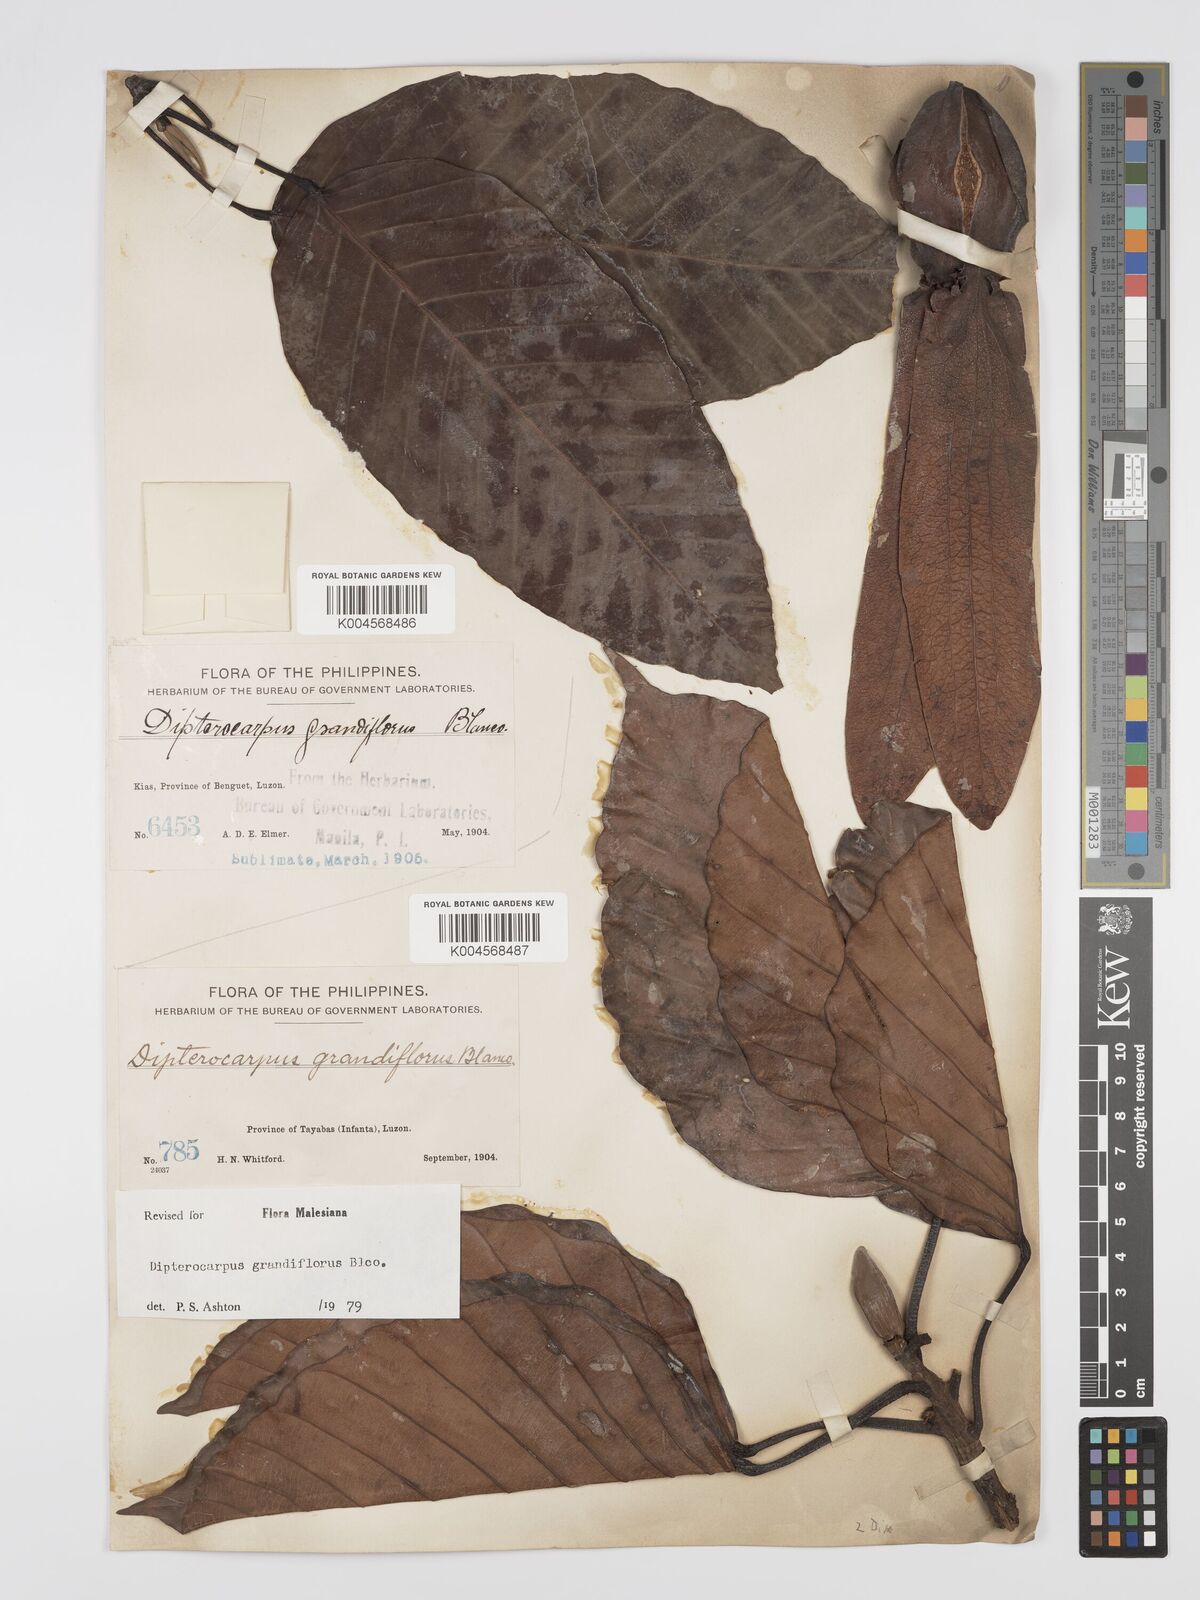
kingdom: Plantae
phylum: Tracheophyta
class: Magnoliopsida
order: Malvales
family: Dipterocarpaceae
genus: Dipterocarpus
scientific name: Dipterocarpus grandiflorus
